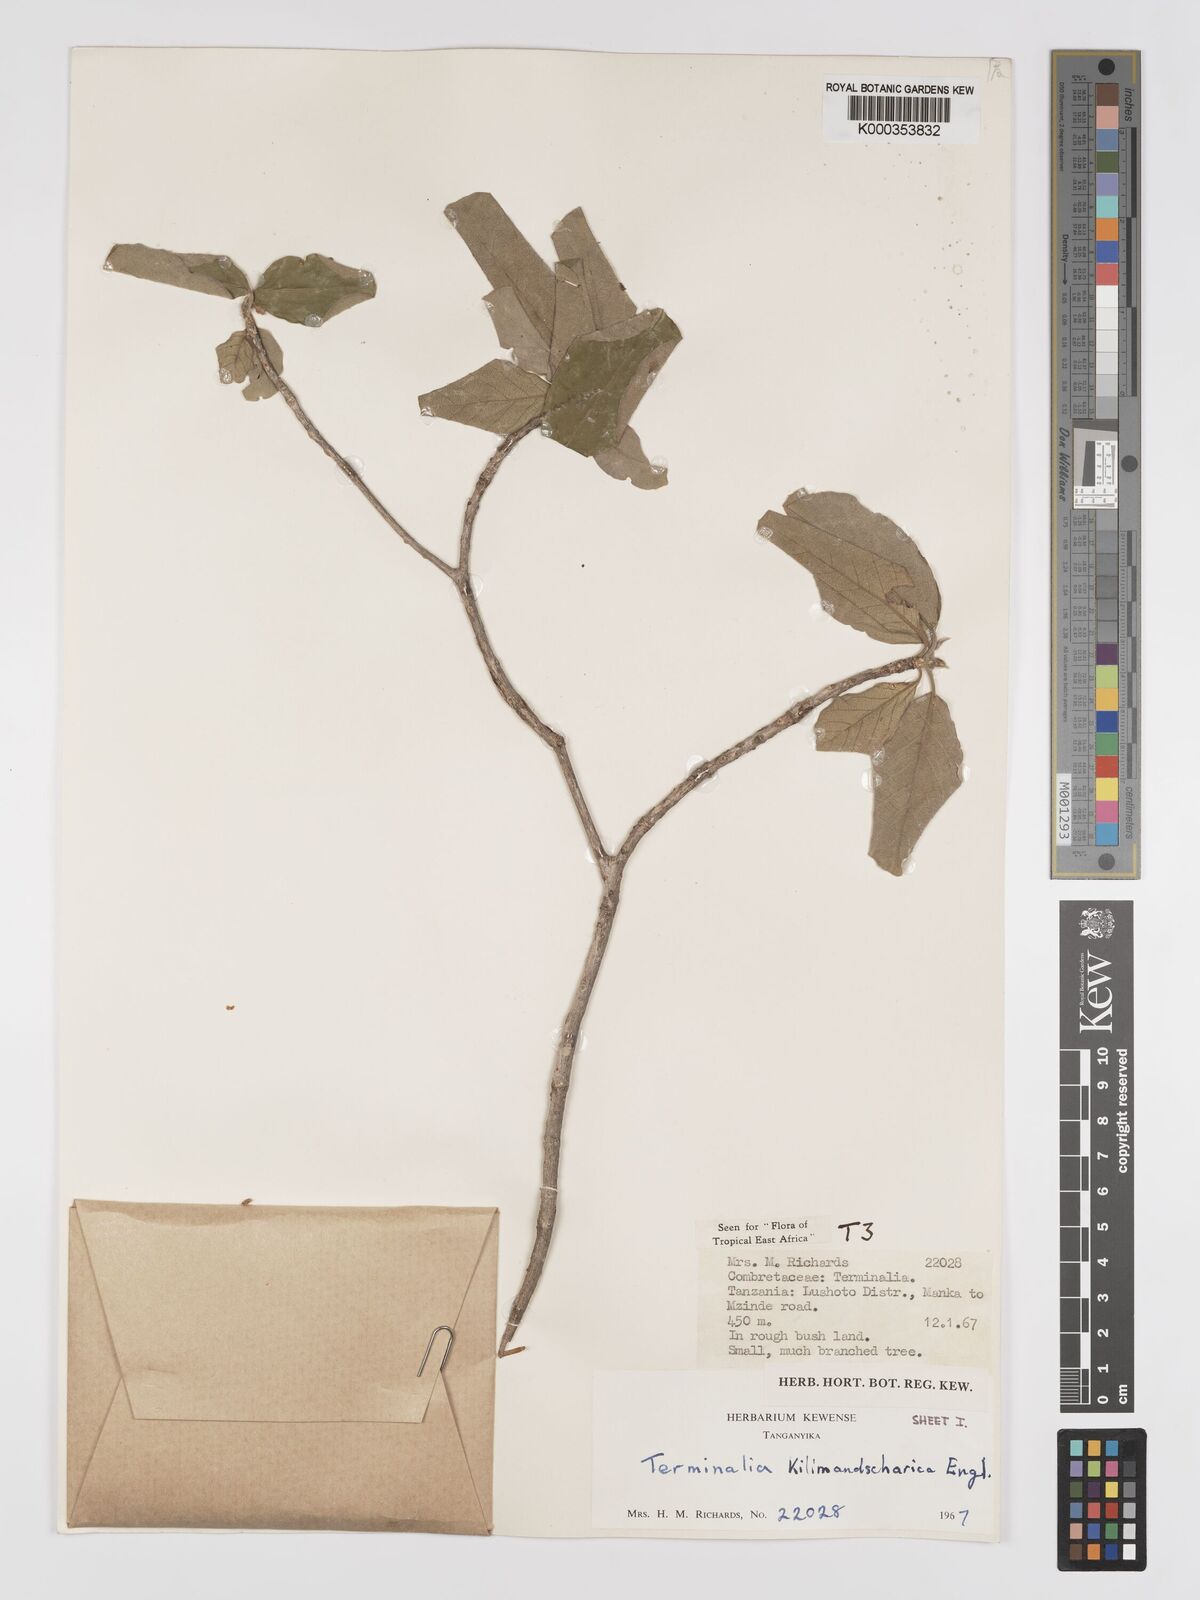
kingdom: Plantae
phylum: Tracheophyta
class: Magnoliopsida
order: Myrtales
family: Combretaceae
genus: Terminalia
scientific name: Terminalia kilimandscharica
